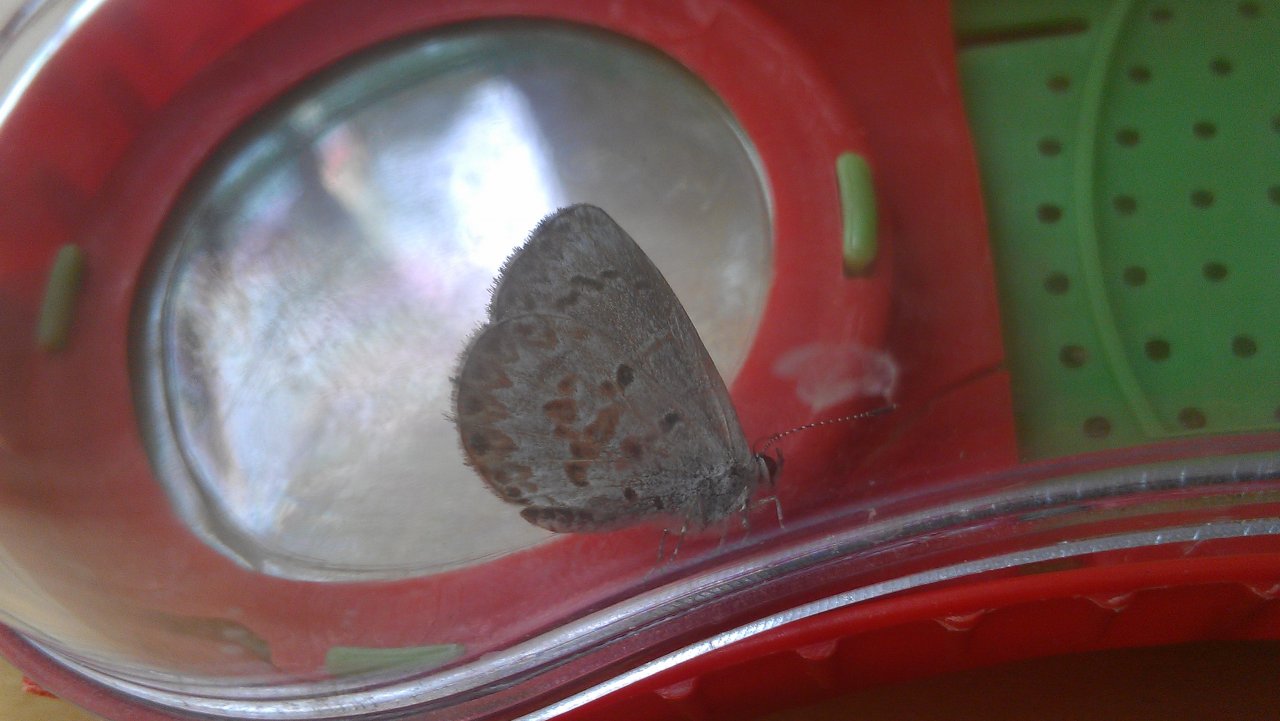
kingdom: Animalia
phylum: Arthropoda
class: Insecta
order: Lepidoptera
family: Lycaenidae
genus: Celastrina
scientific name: Celastrina lucia
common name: Northern Spring Azure
